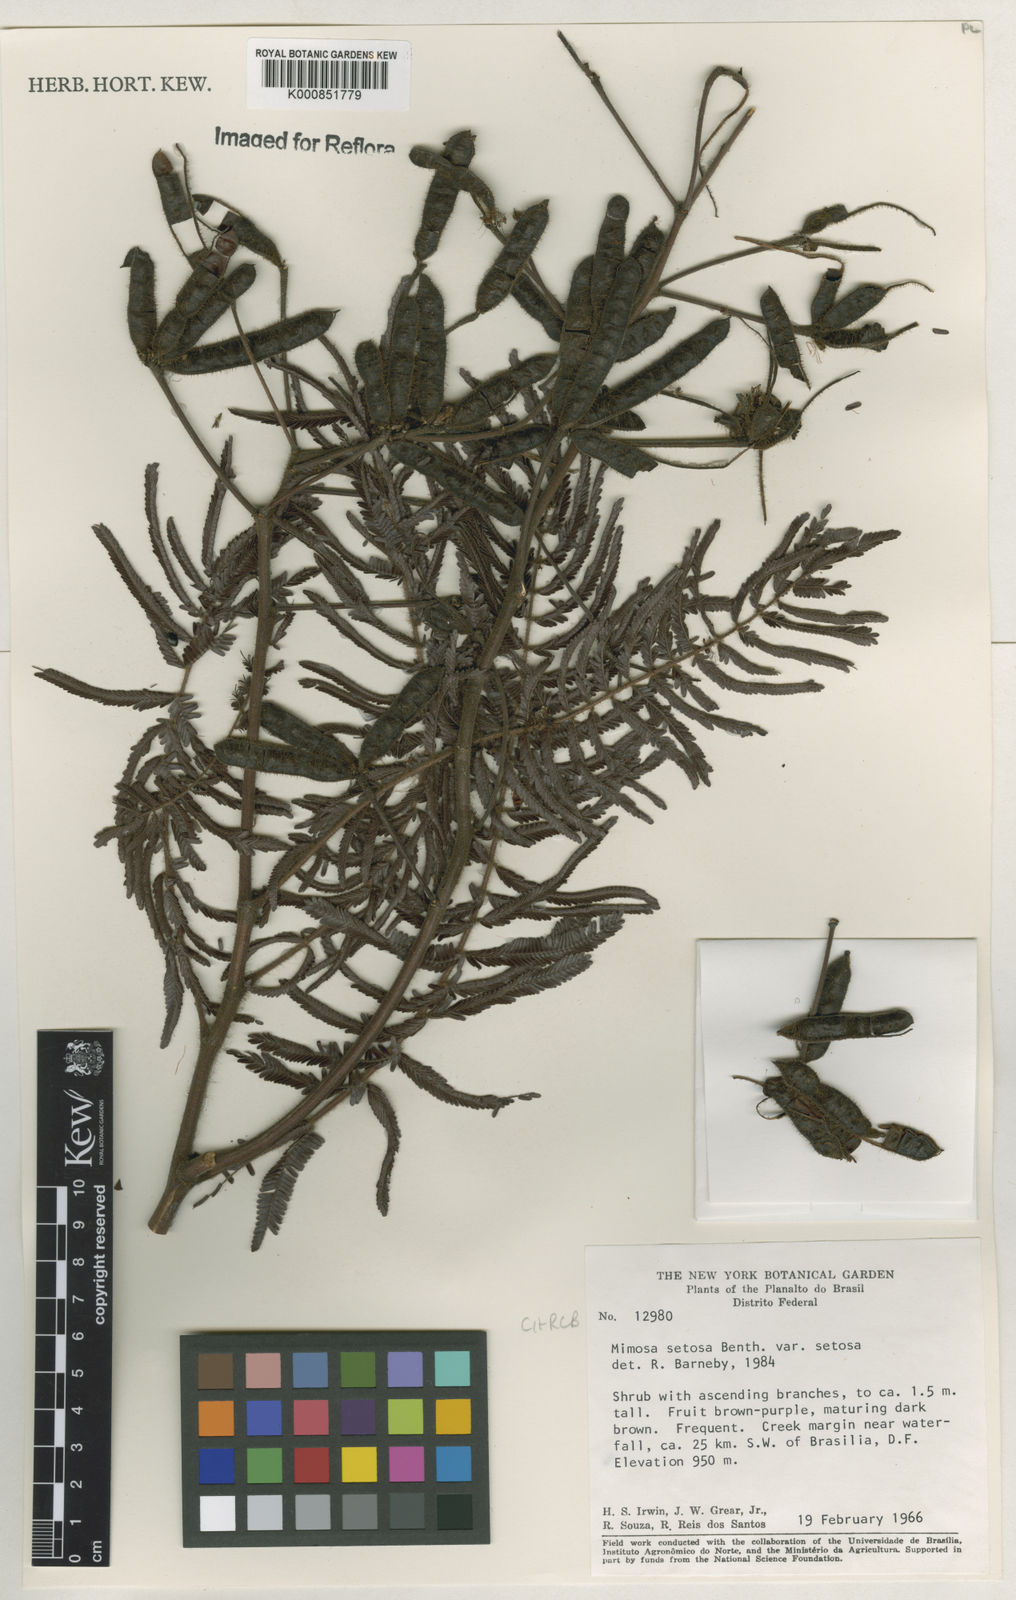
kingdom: Plantae
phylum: Tracheophyta
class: Magnoliopsida
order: Fabales
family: Fabaceae
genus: Mimosa
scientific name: Mimosa setosa
